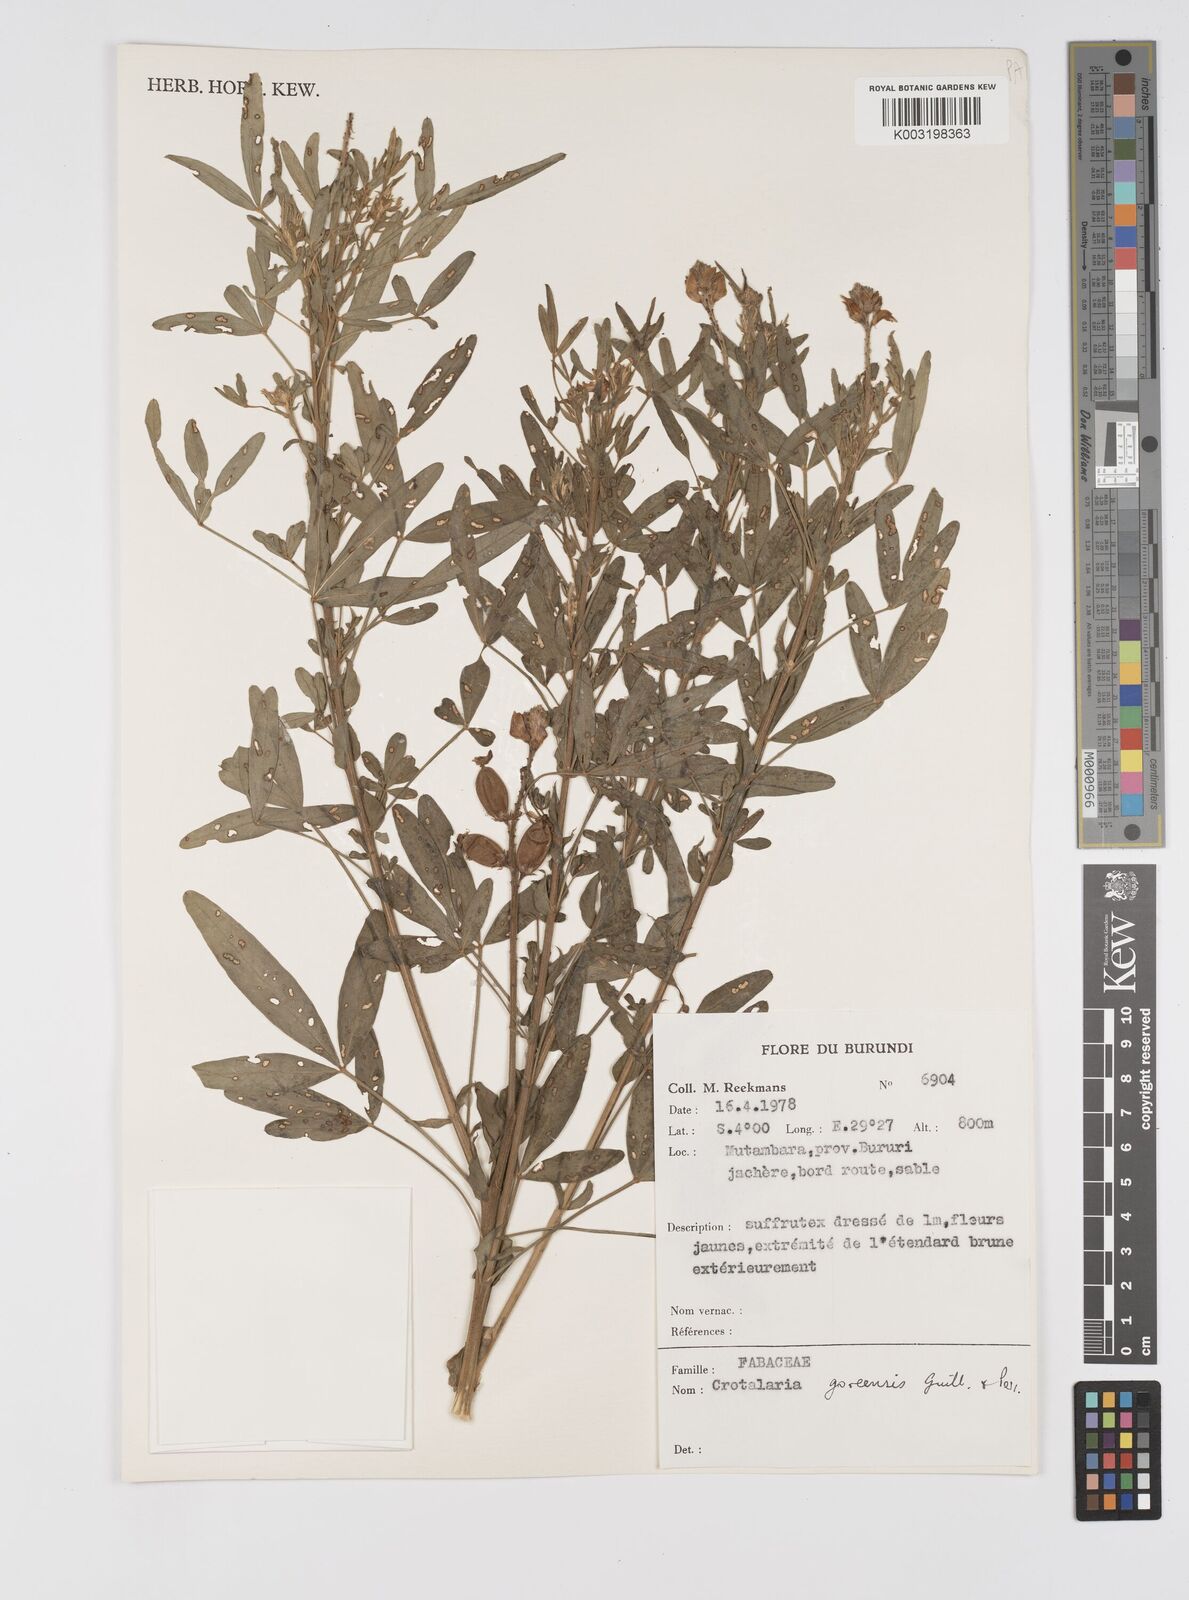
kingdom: Plantae
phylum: Tracheophyta
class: Magnoliopsida
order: Fabales
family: Fabaceae
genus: Crotalaria
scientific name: Crotalaria goreensis
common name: Gambia-pea
